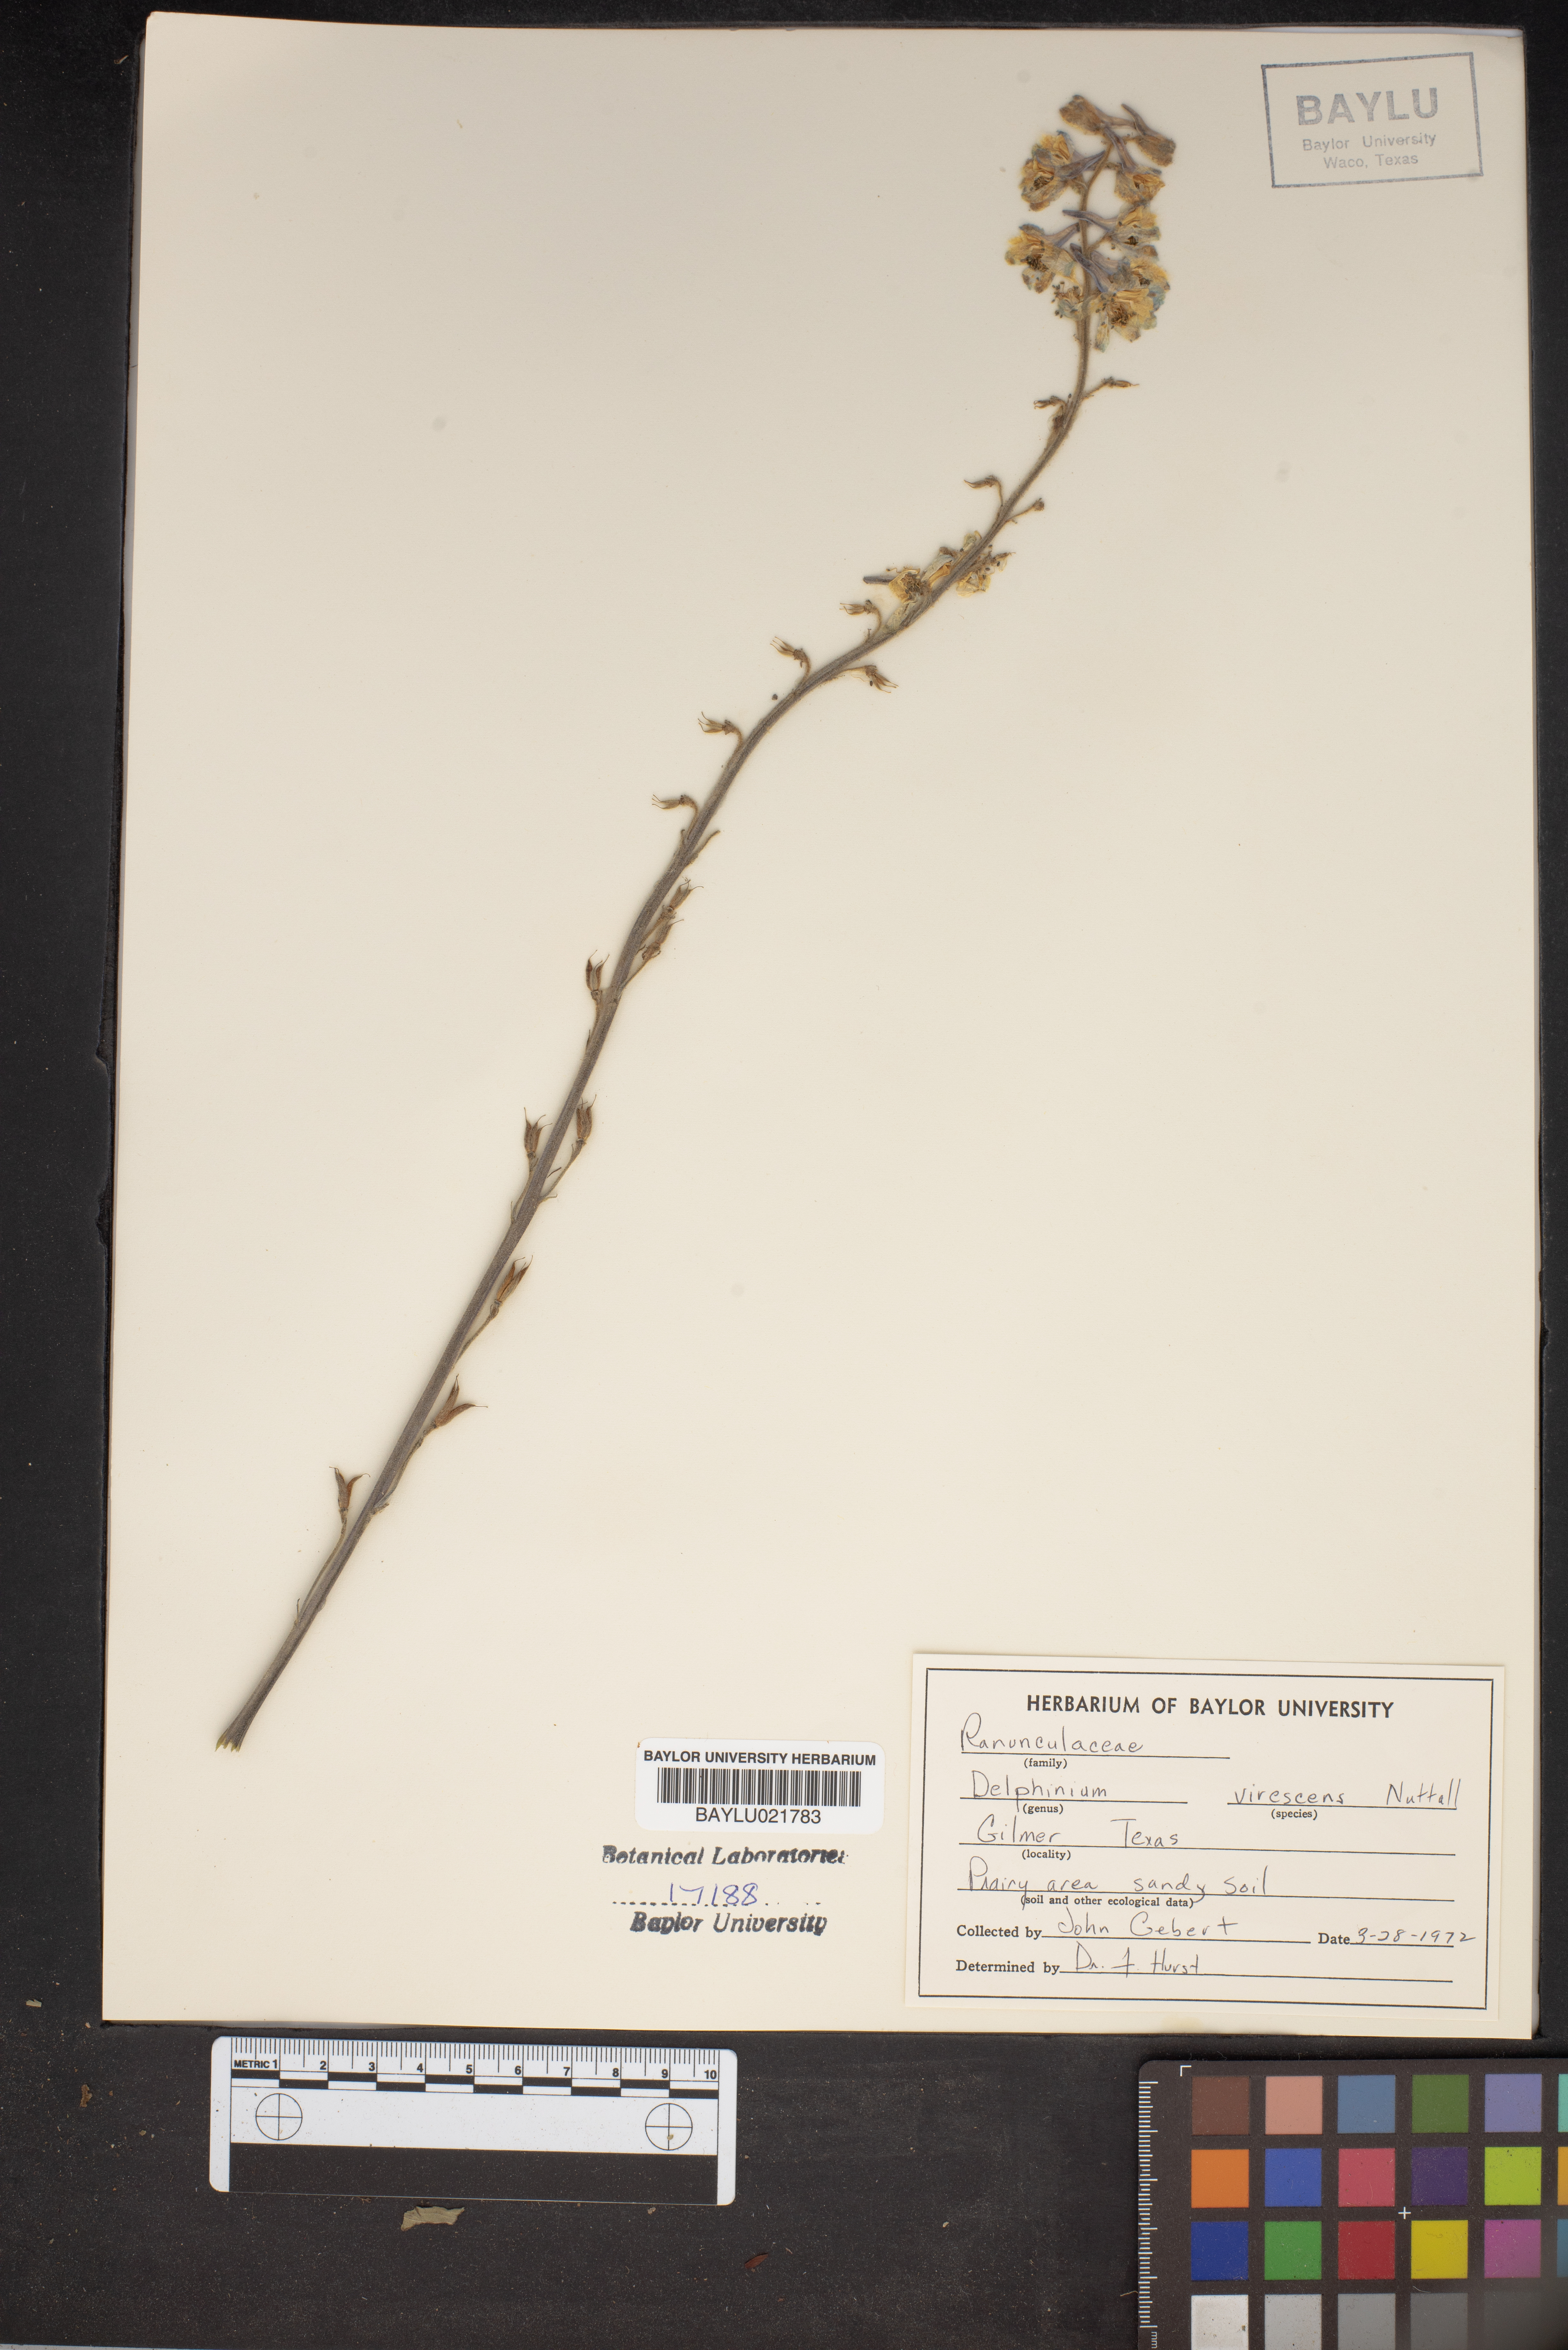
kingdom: Plantae
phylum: Tracheophyta
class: Magnoliopsida
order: Ranunculales
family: Ranunculaceae
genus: Delphinium
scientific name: Delphinium carolinianum
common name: Carolina larkspur
